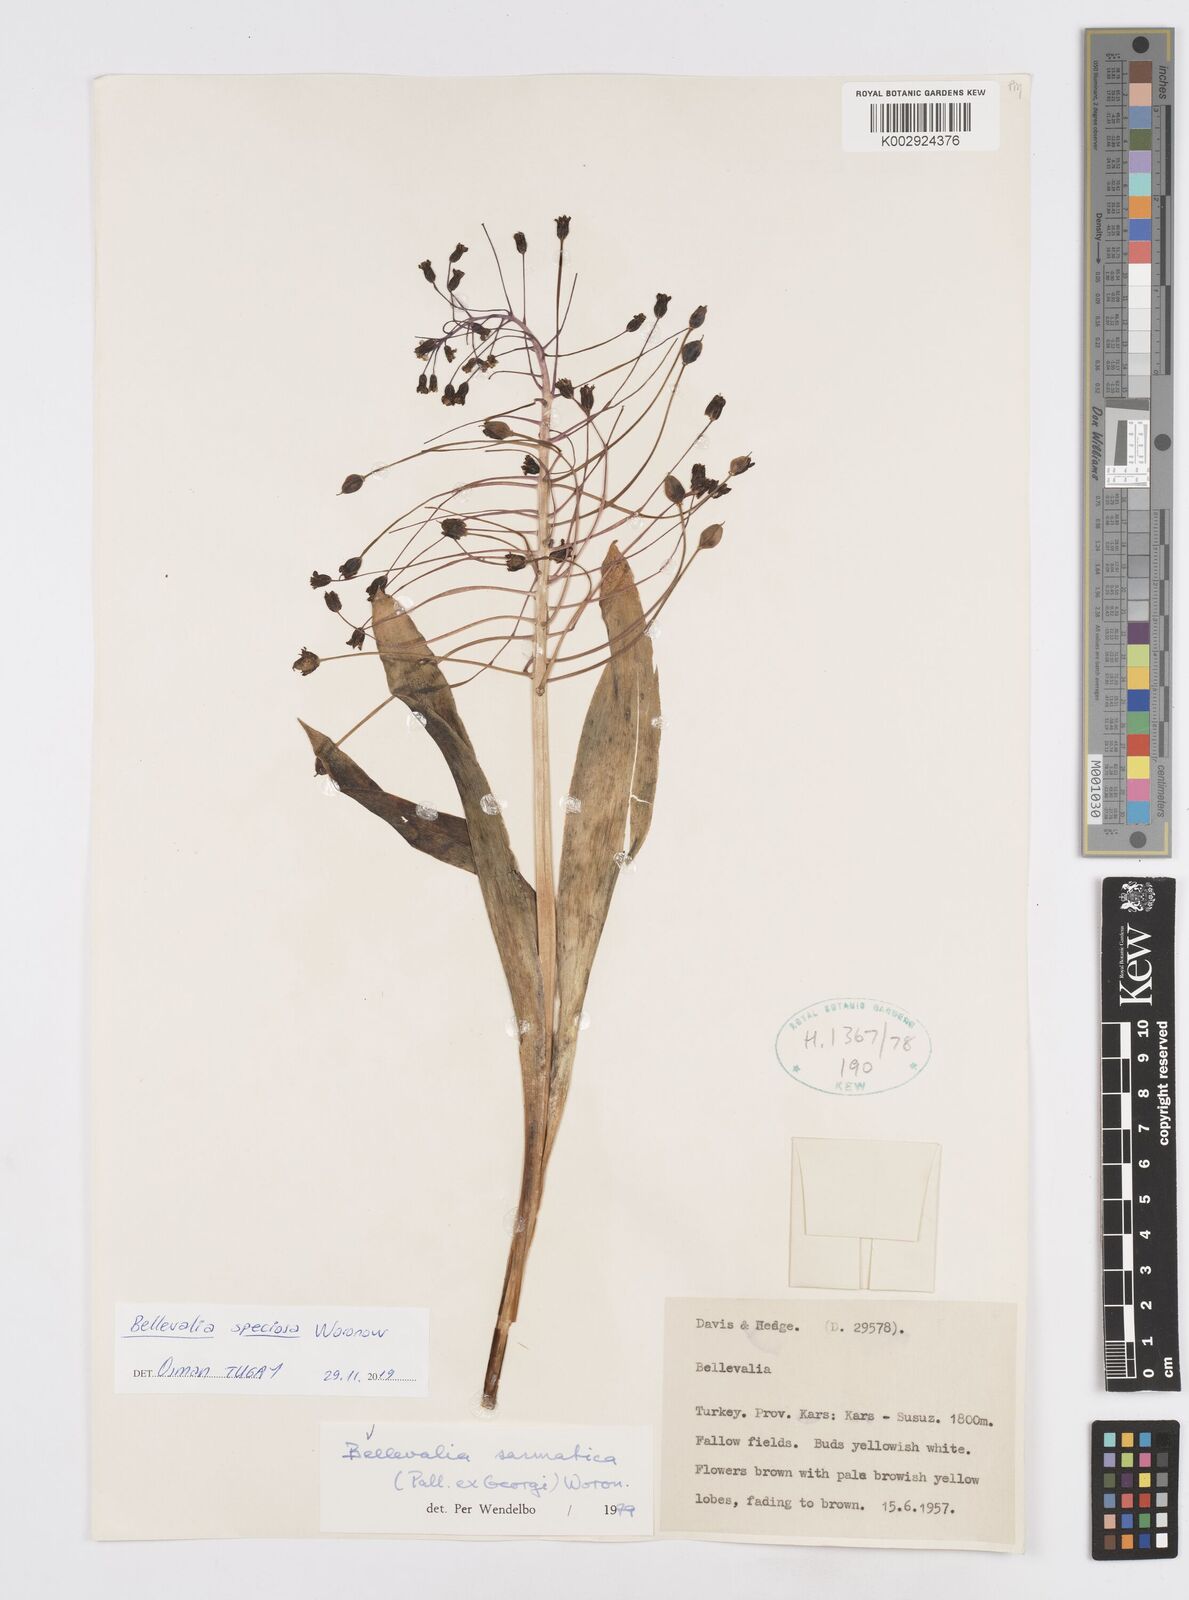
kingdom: Plantae
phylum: Tracheophyta
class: Liliopsida
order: Asparagales
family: Asparagaceae
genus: Bellevalia
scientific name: Bellevalia speciosa
